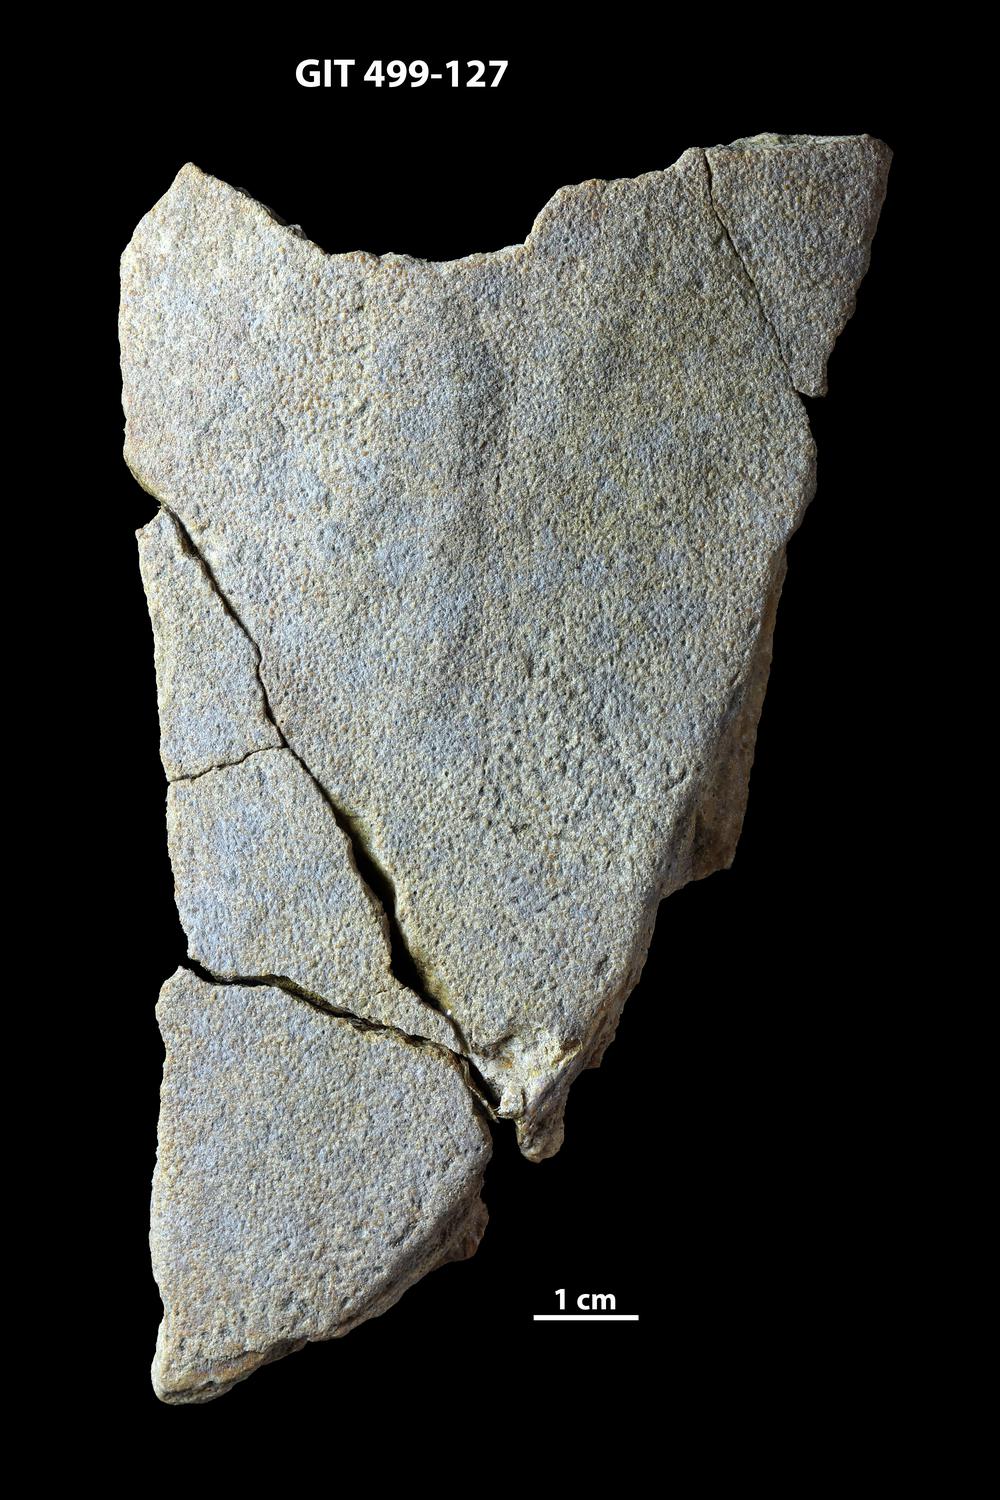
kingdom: Animalia
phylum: Chordata
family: Holoptychiidae
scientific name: Holoptychiidae
